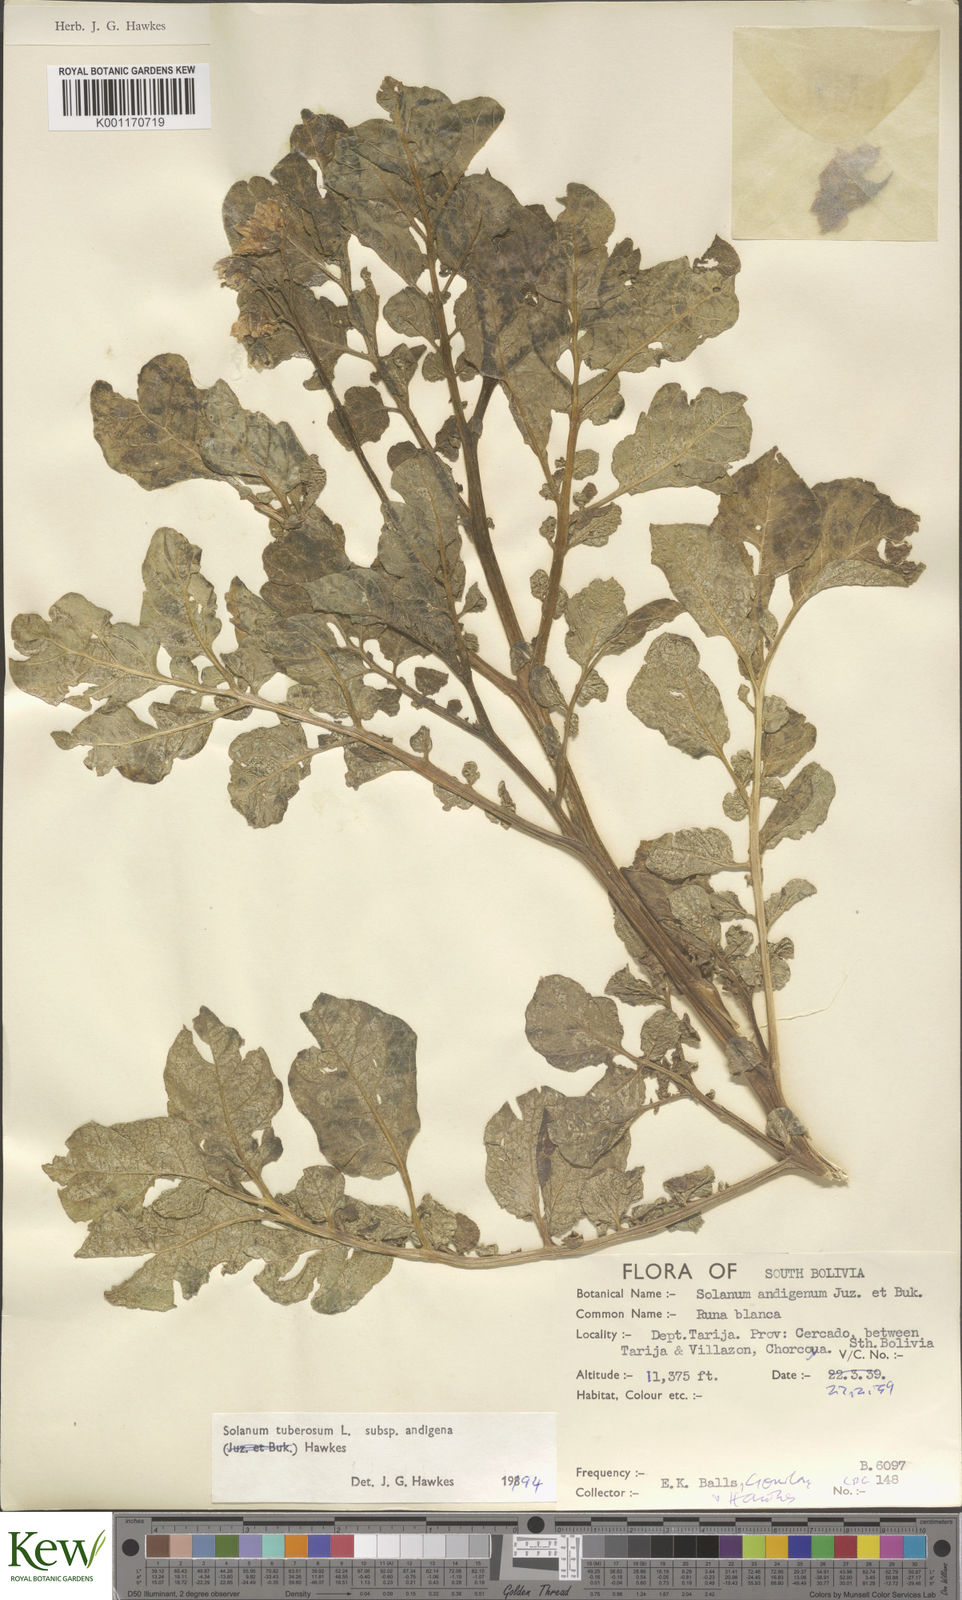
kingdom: Plantae
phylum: Tracheophyta
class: Magnoliopsida
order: Solanales
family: Solanaceae
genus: Solanum
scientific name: Solanum tuberosum
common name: Potato
